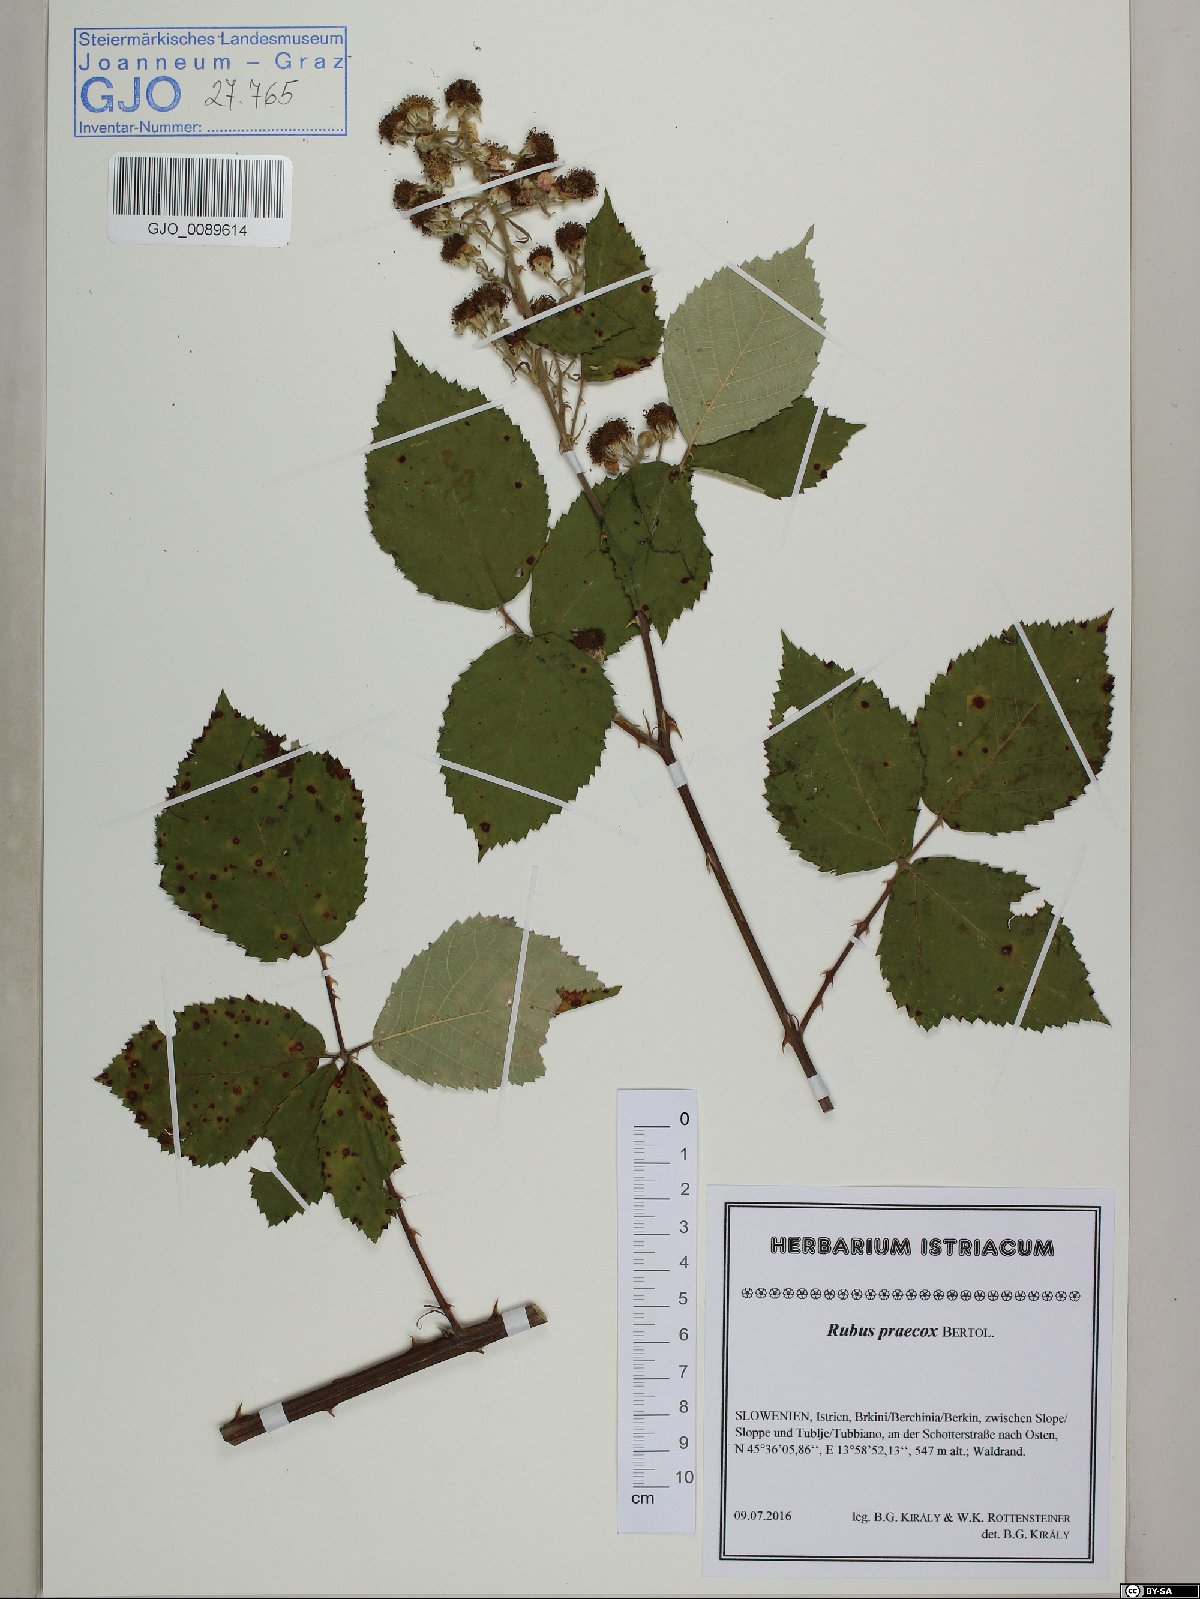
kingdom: Plantae
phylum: Tracheophyta
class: Magnoliopsida
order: Rosales
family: Rosaceae
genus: Rubus
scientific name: Rubus praecox
